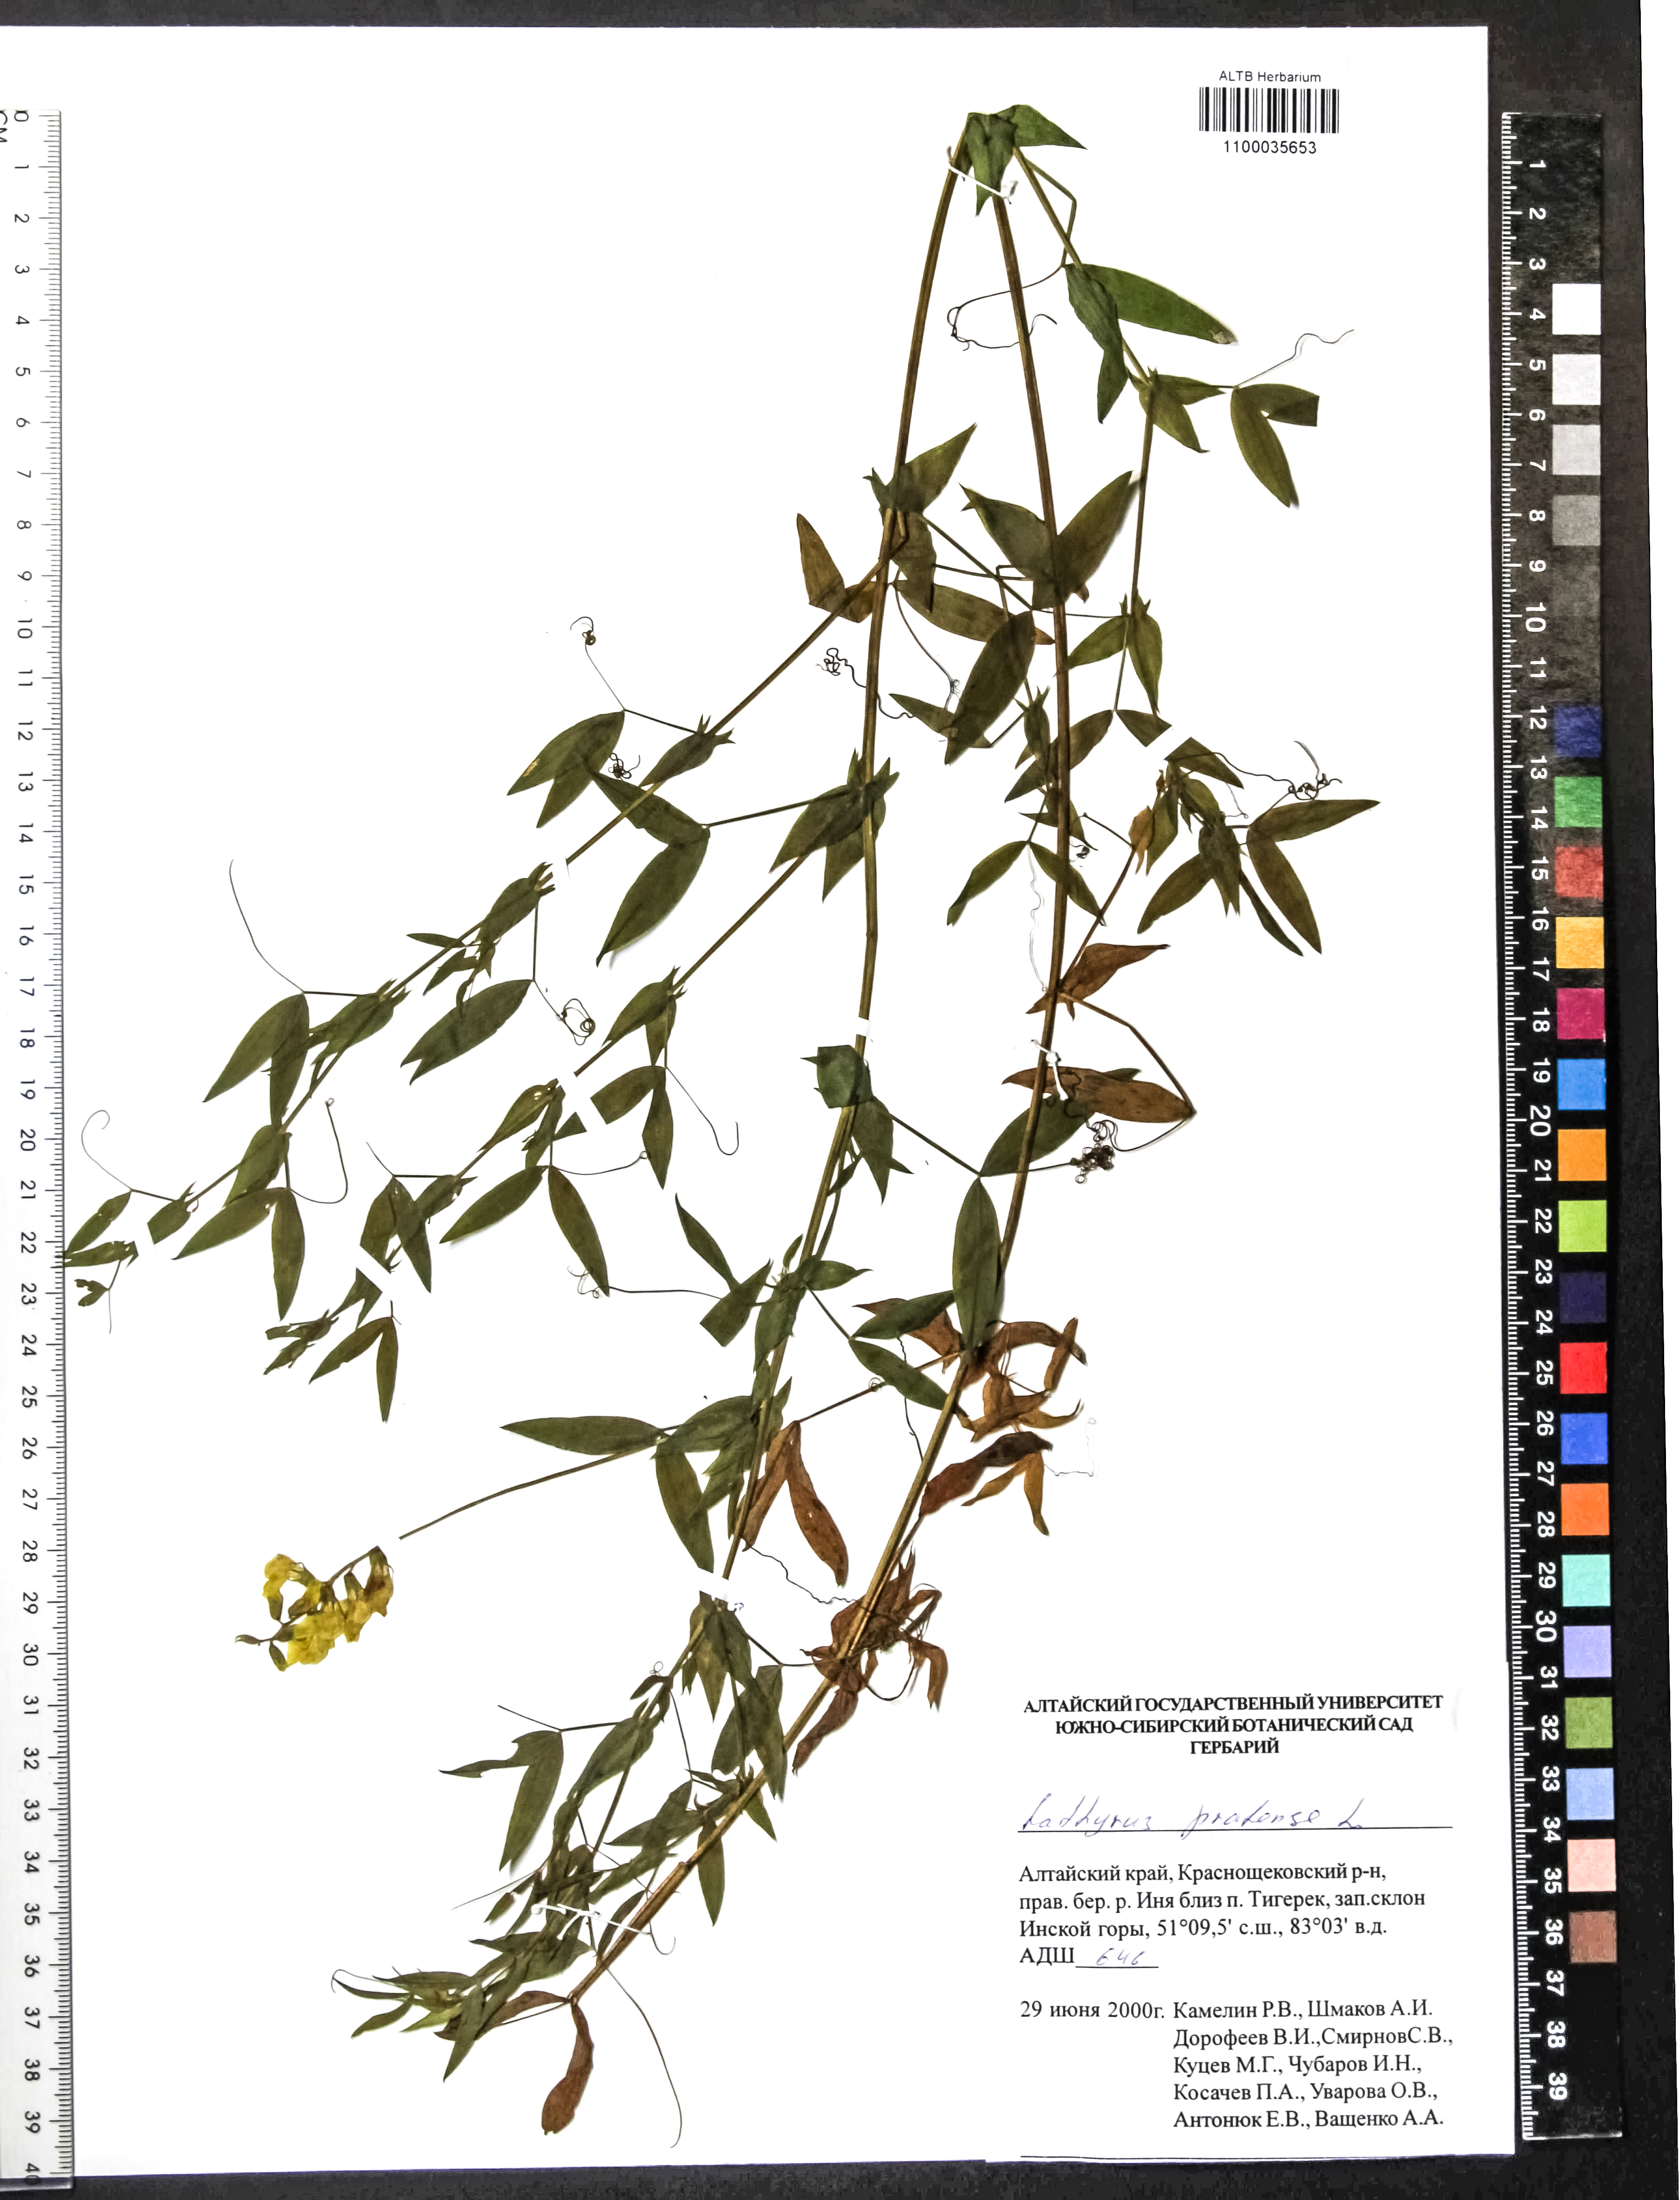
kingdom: Plantae
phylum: Tracheophyta
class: Magnoliopsida
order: Fabales
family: Fabaceae
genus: Lathyrus
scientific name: Lathyrus pratensis
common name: Meadow vetchling
